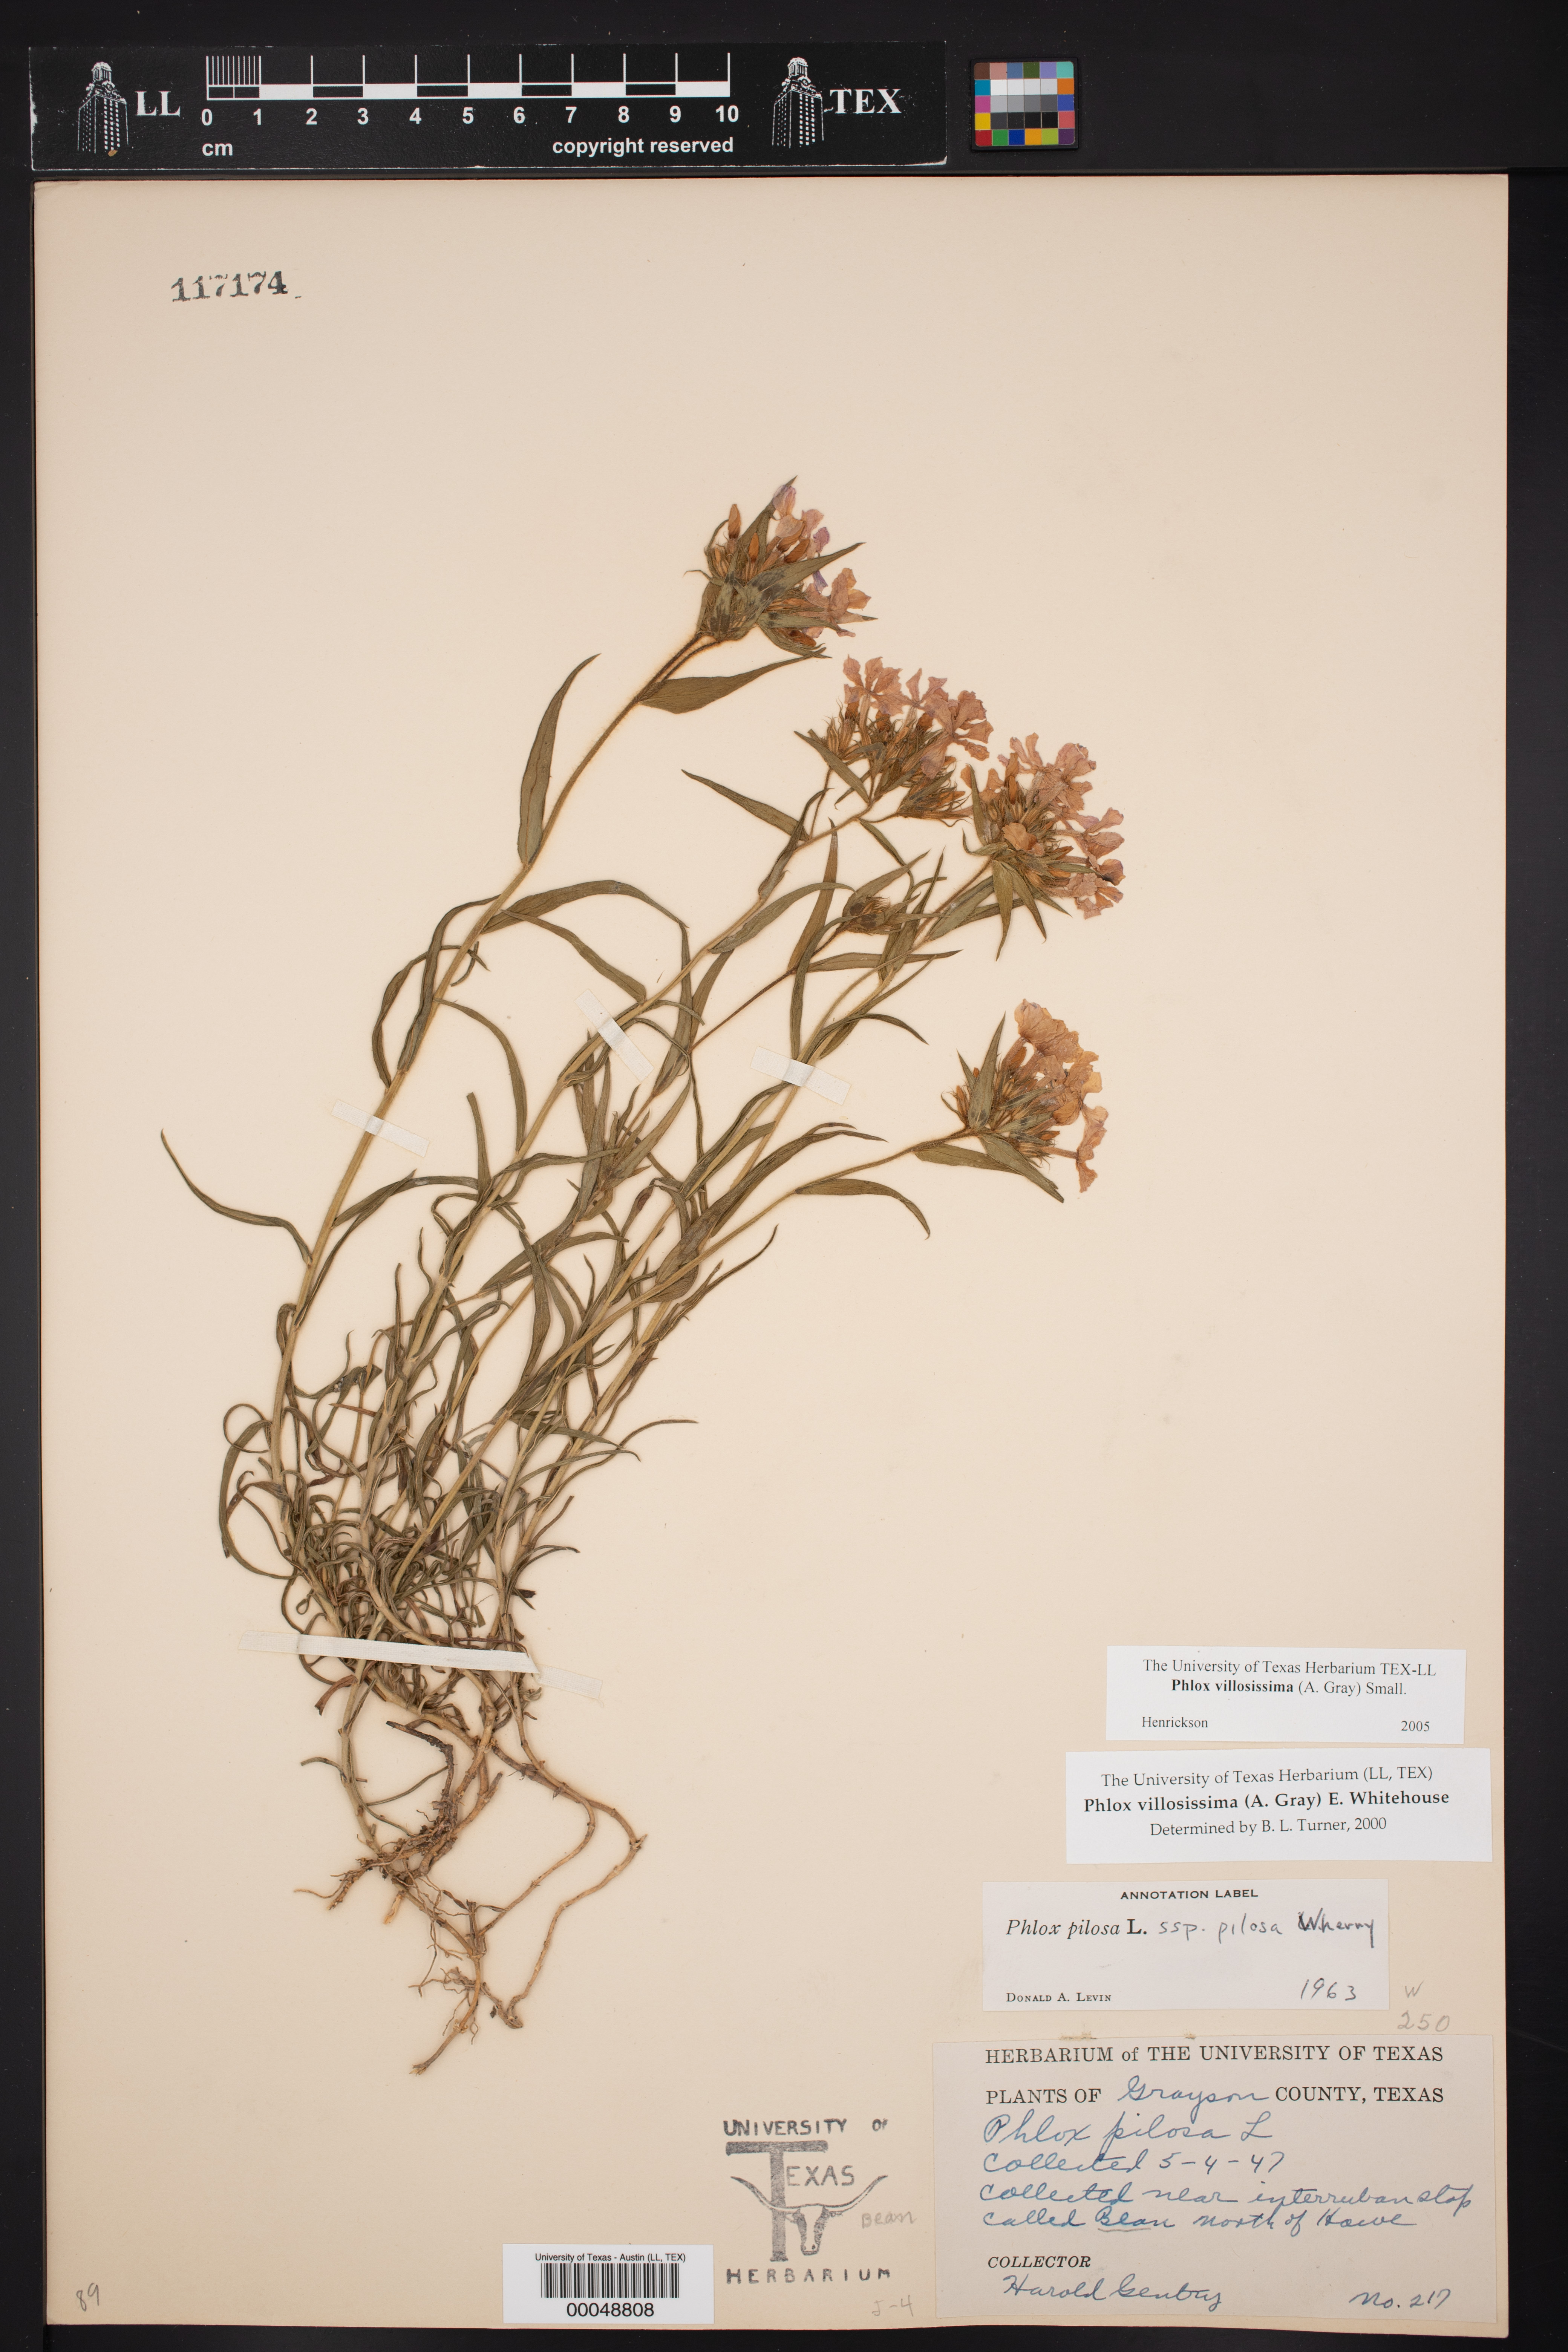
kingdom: Plantae
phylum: Tracheophyta
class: Magnoliopsida
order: Ericales
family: Polemoniaceae
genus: Phlox
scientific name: Phlox pilosa
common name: Prairie phlox
